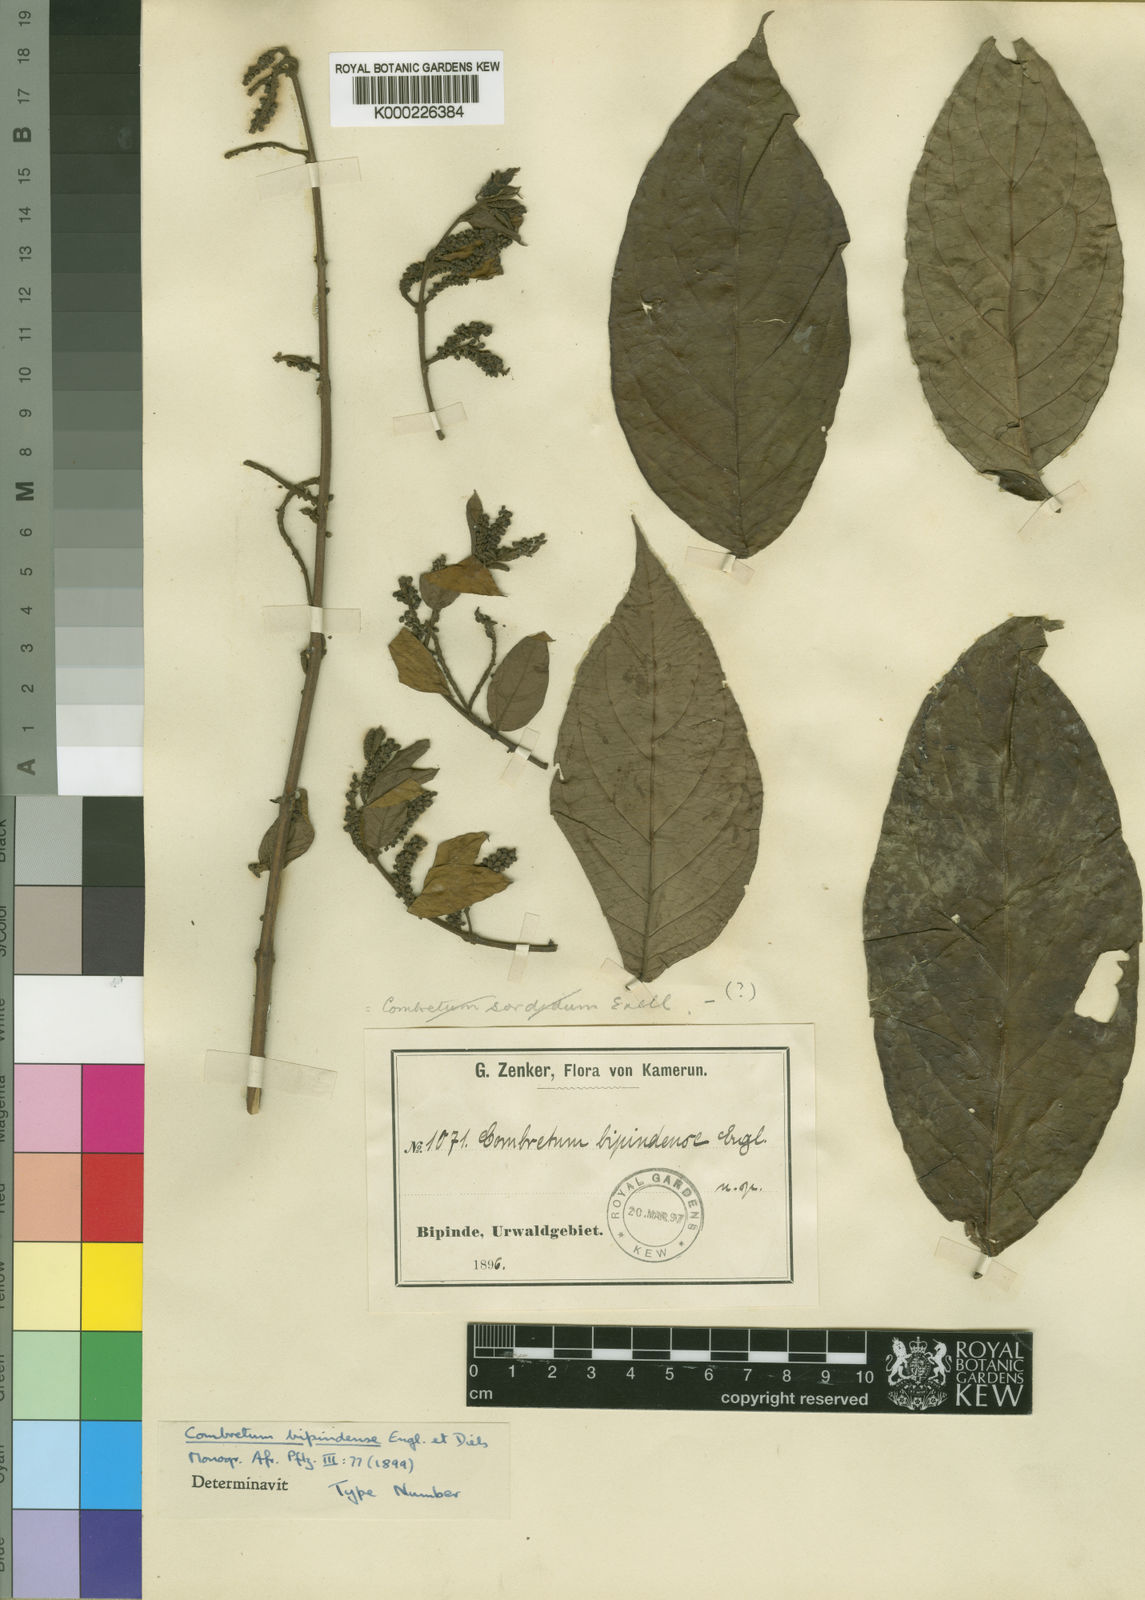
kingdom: Plantae
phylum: Tracheophyta
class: Magnoliopsida
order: Myrtales
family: Combretaceae
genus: Combretum
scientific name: Combretum bipindense
